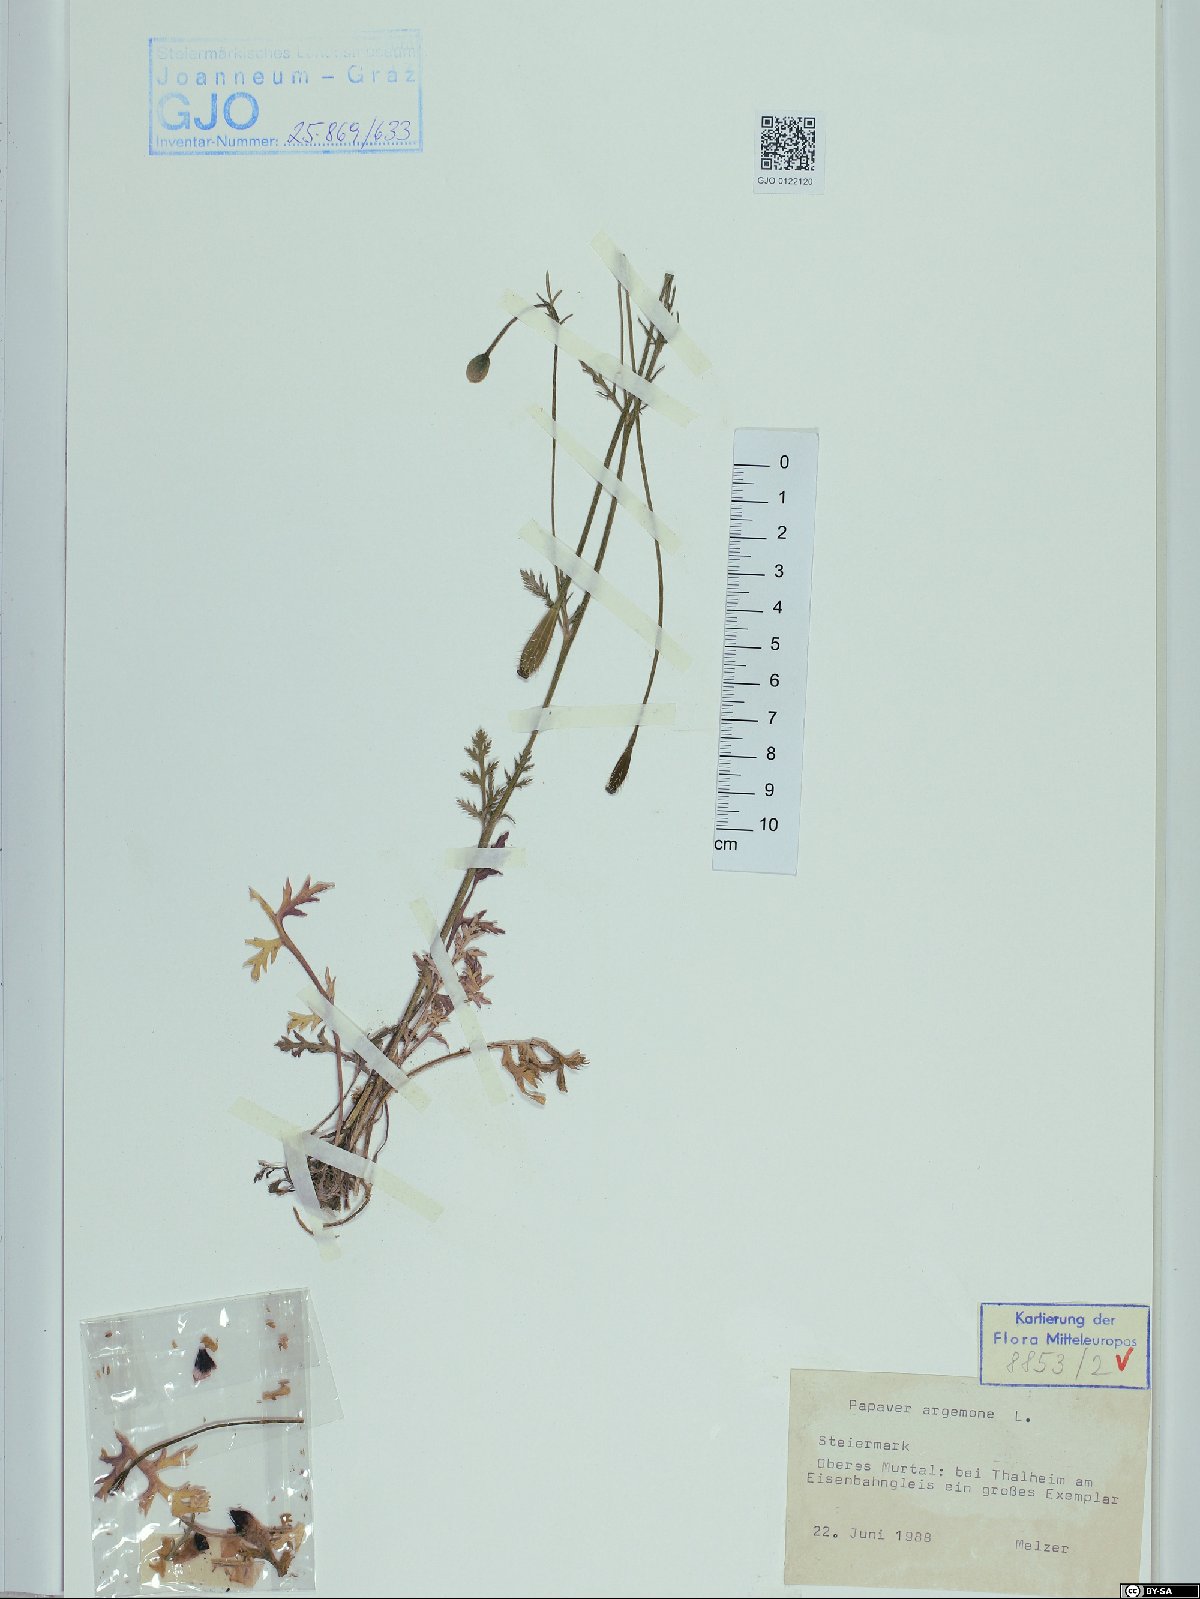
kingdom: Plantae
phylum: Tracheophyta
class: Magnoliopsida
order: Ranunculales
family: Papaveraceae
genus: Roemeria
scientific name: Roemeria argemone
